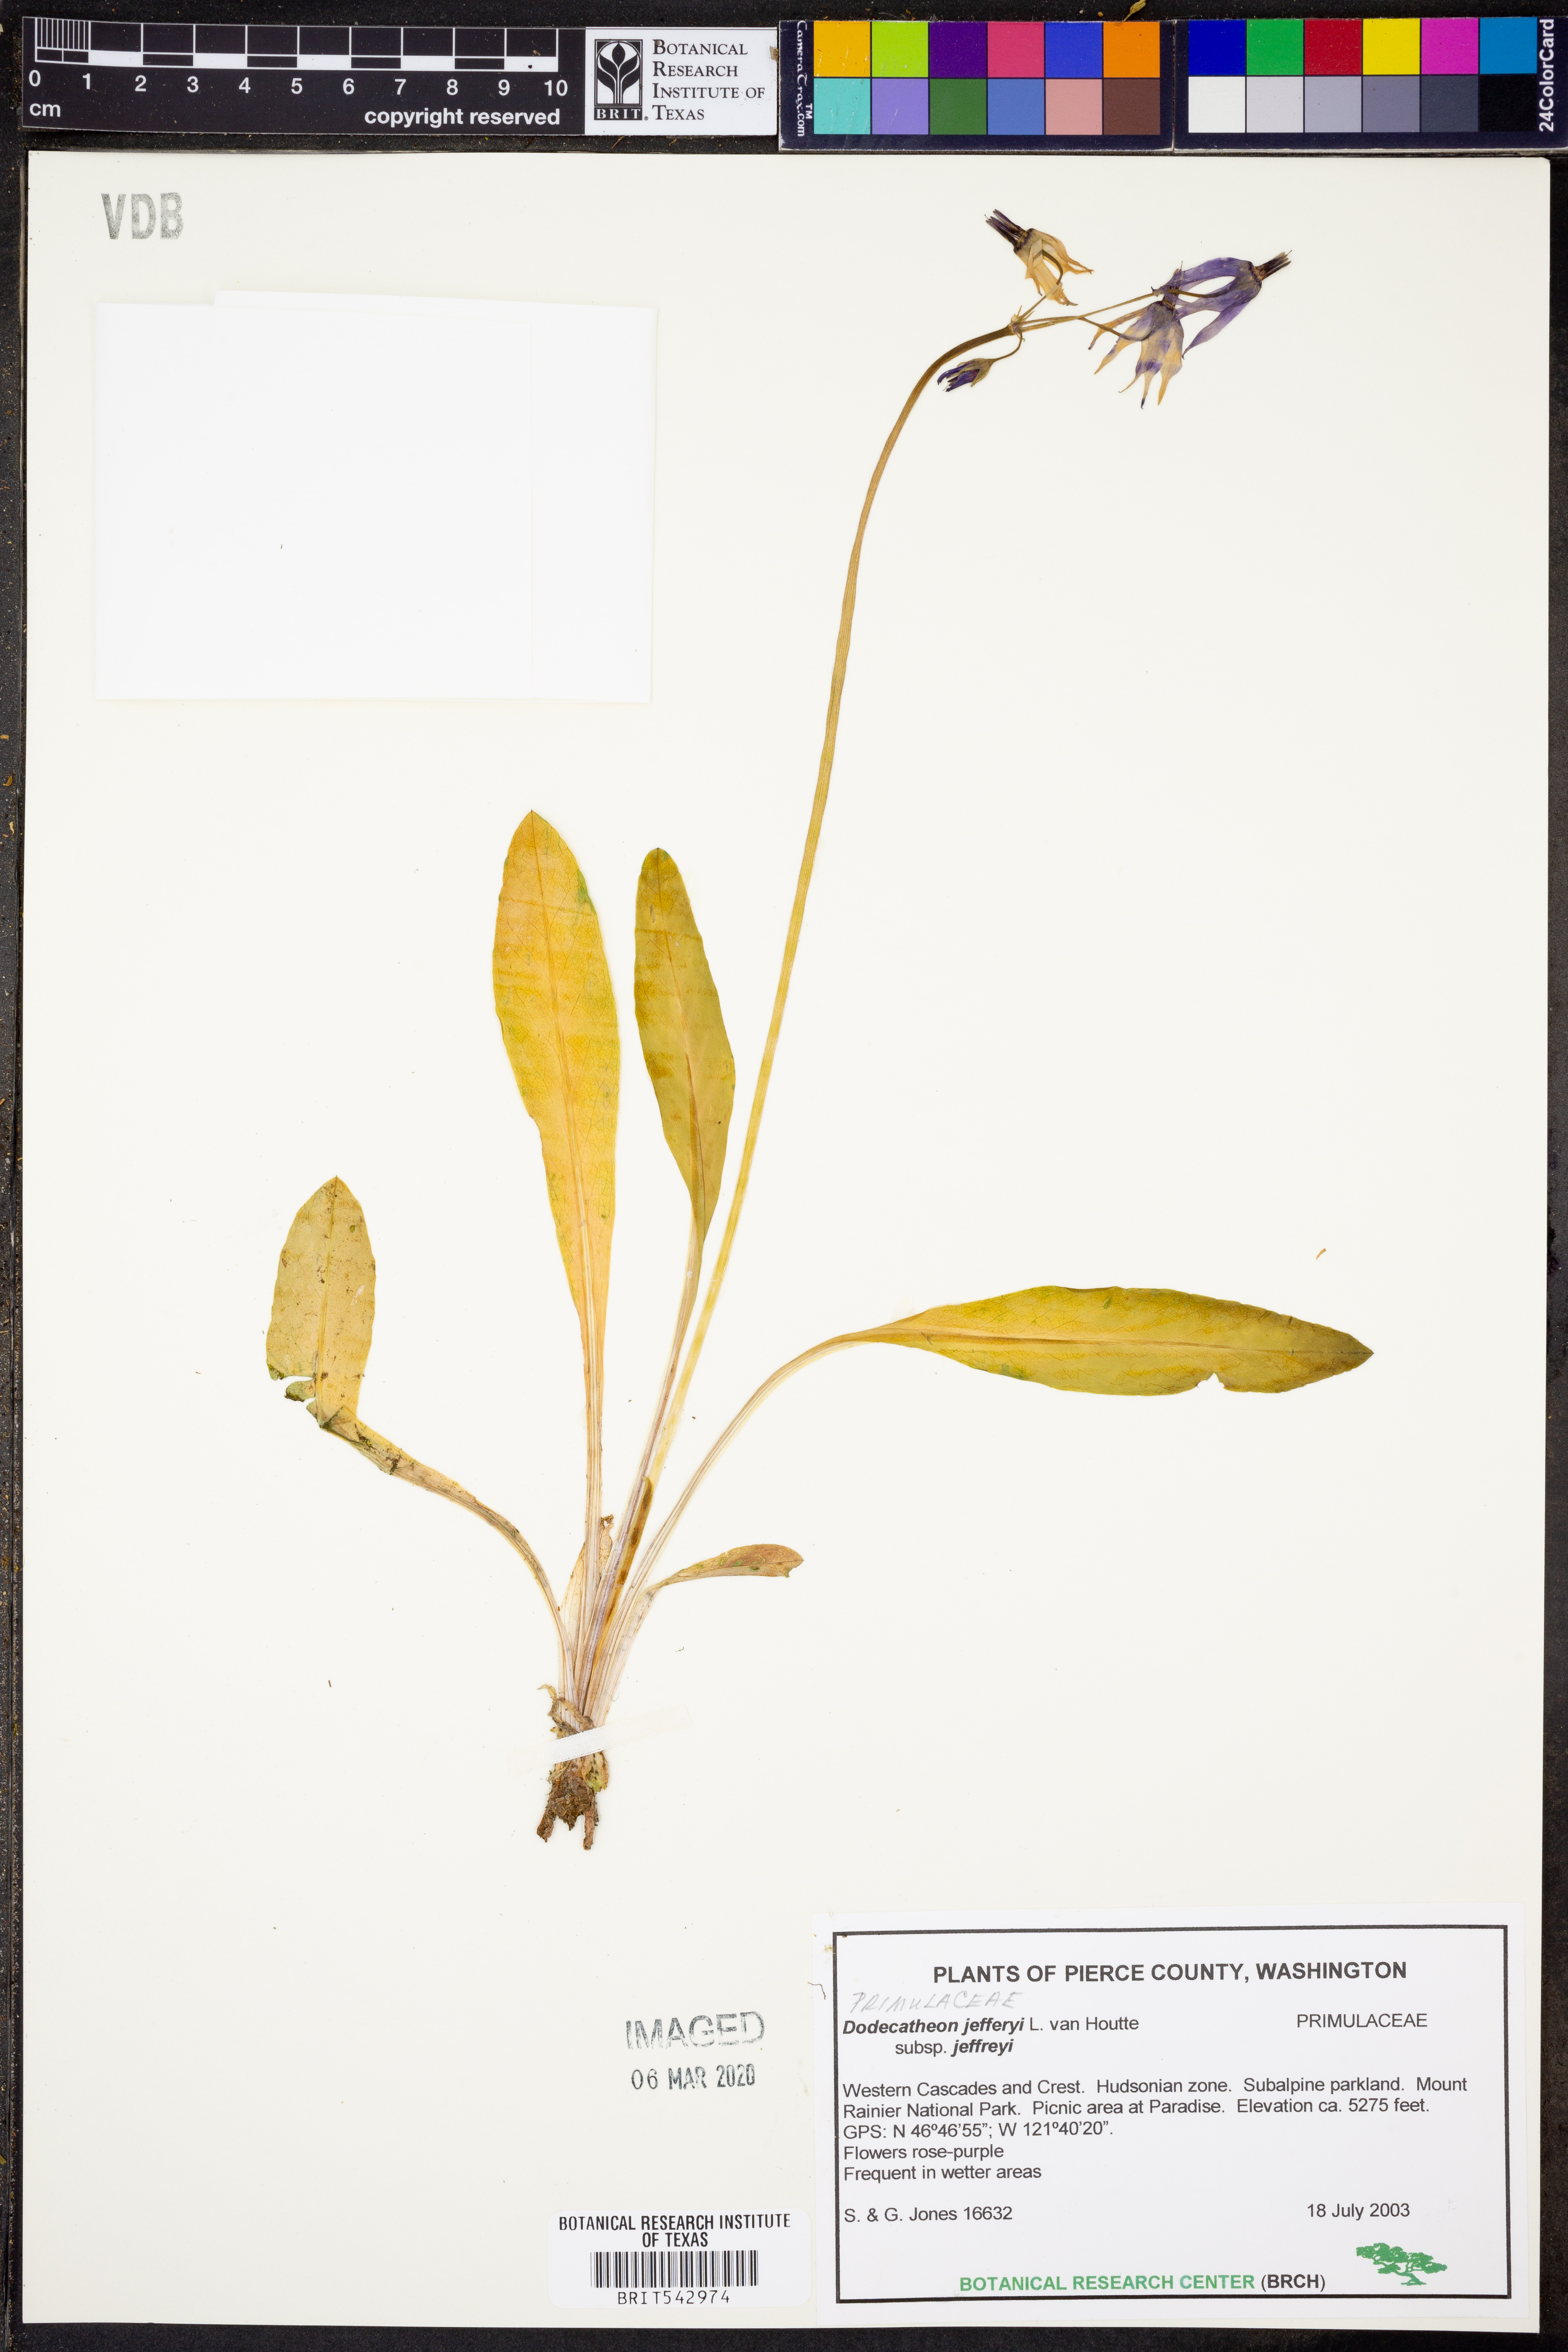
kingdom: Plantae
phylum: Tracheophyta
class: Magnoliopsida
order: Ericales
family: Primulaceae
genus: Dodecatheon
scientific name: Dodecatheon jeffreyanum
